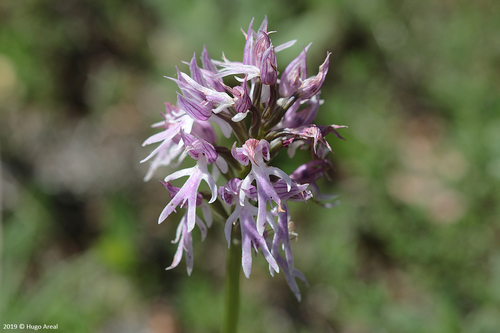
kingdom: Plantae
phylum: Tracheophyta
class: Liliopsida
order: Asparagales
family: Orchidaceae
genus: Orchis
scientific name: Orchis italica
